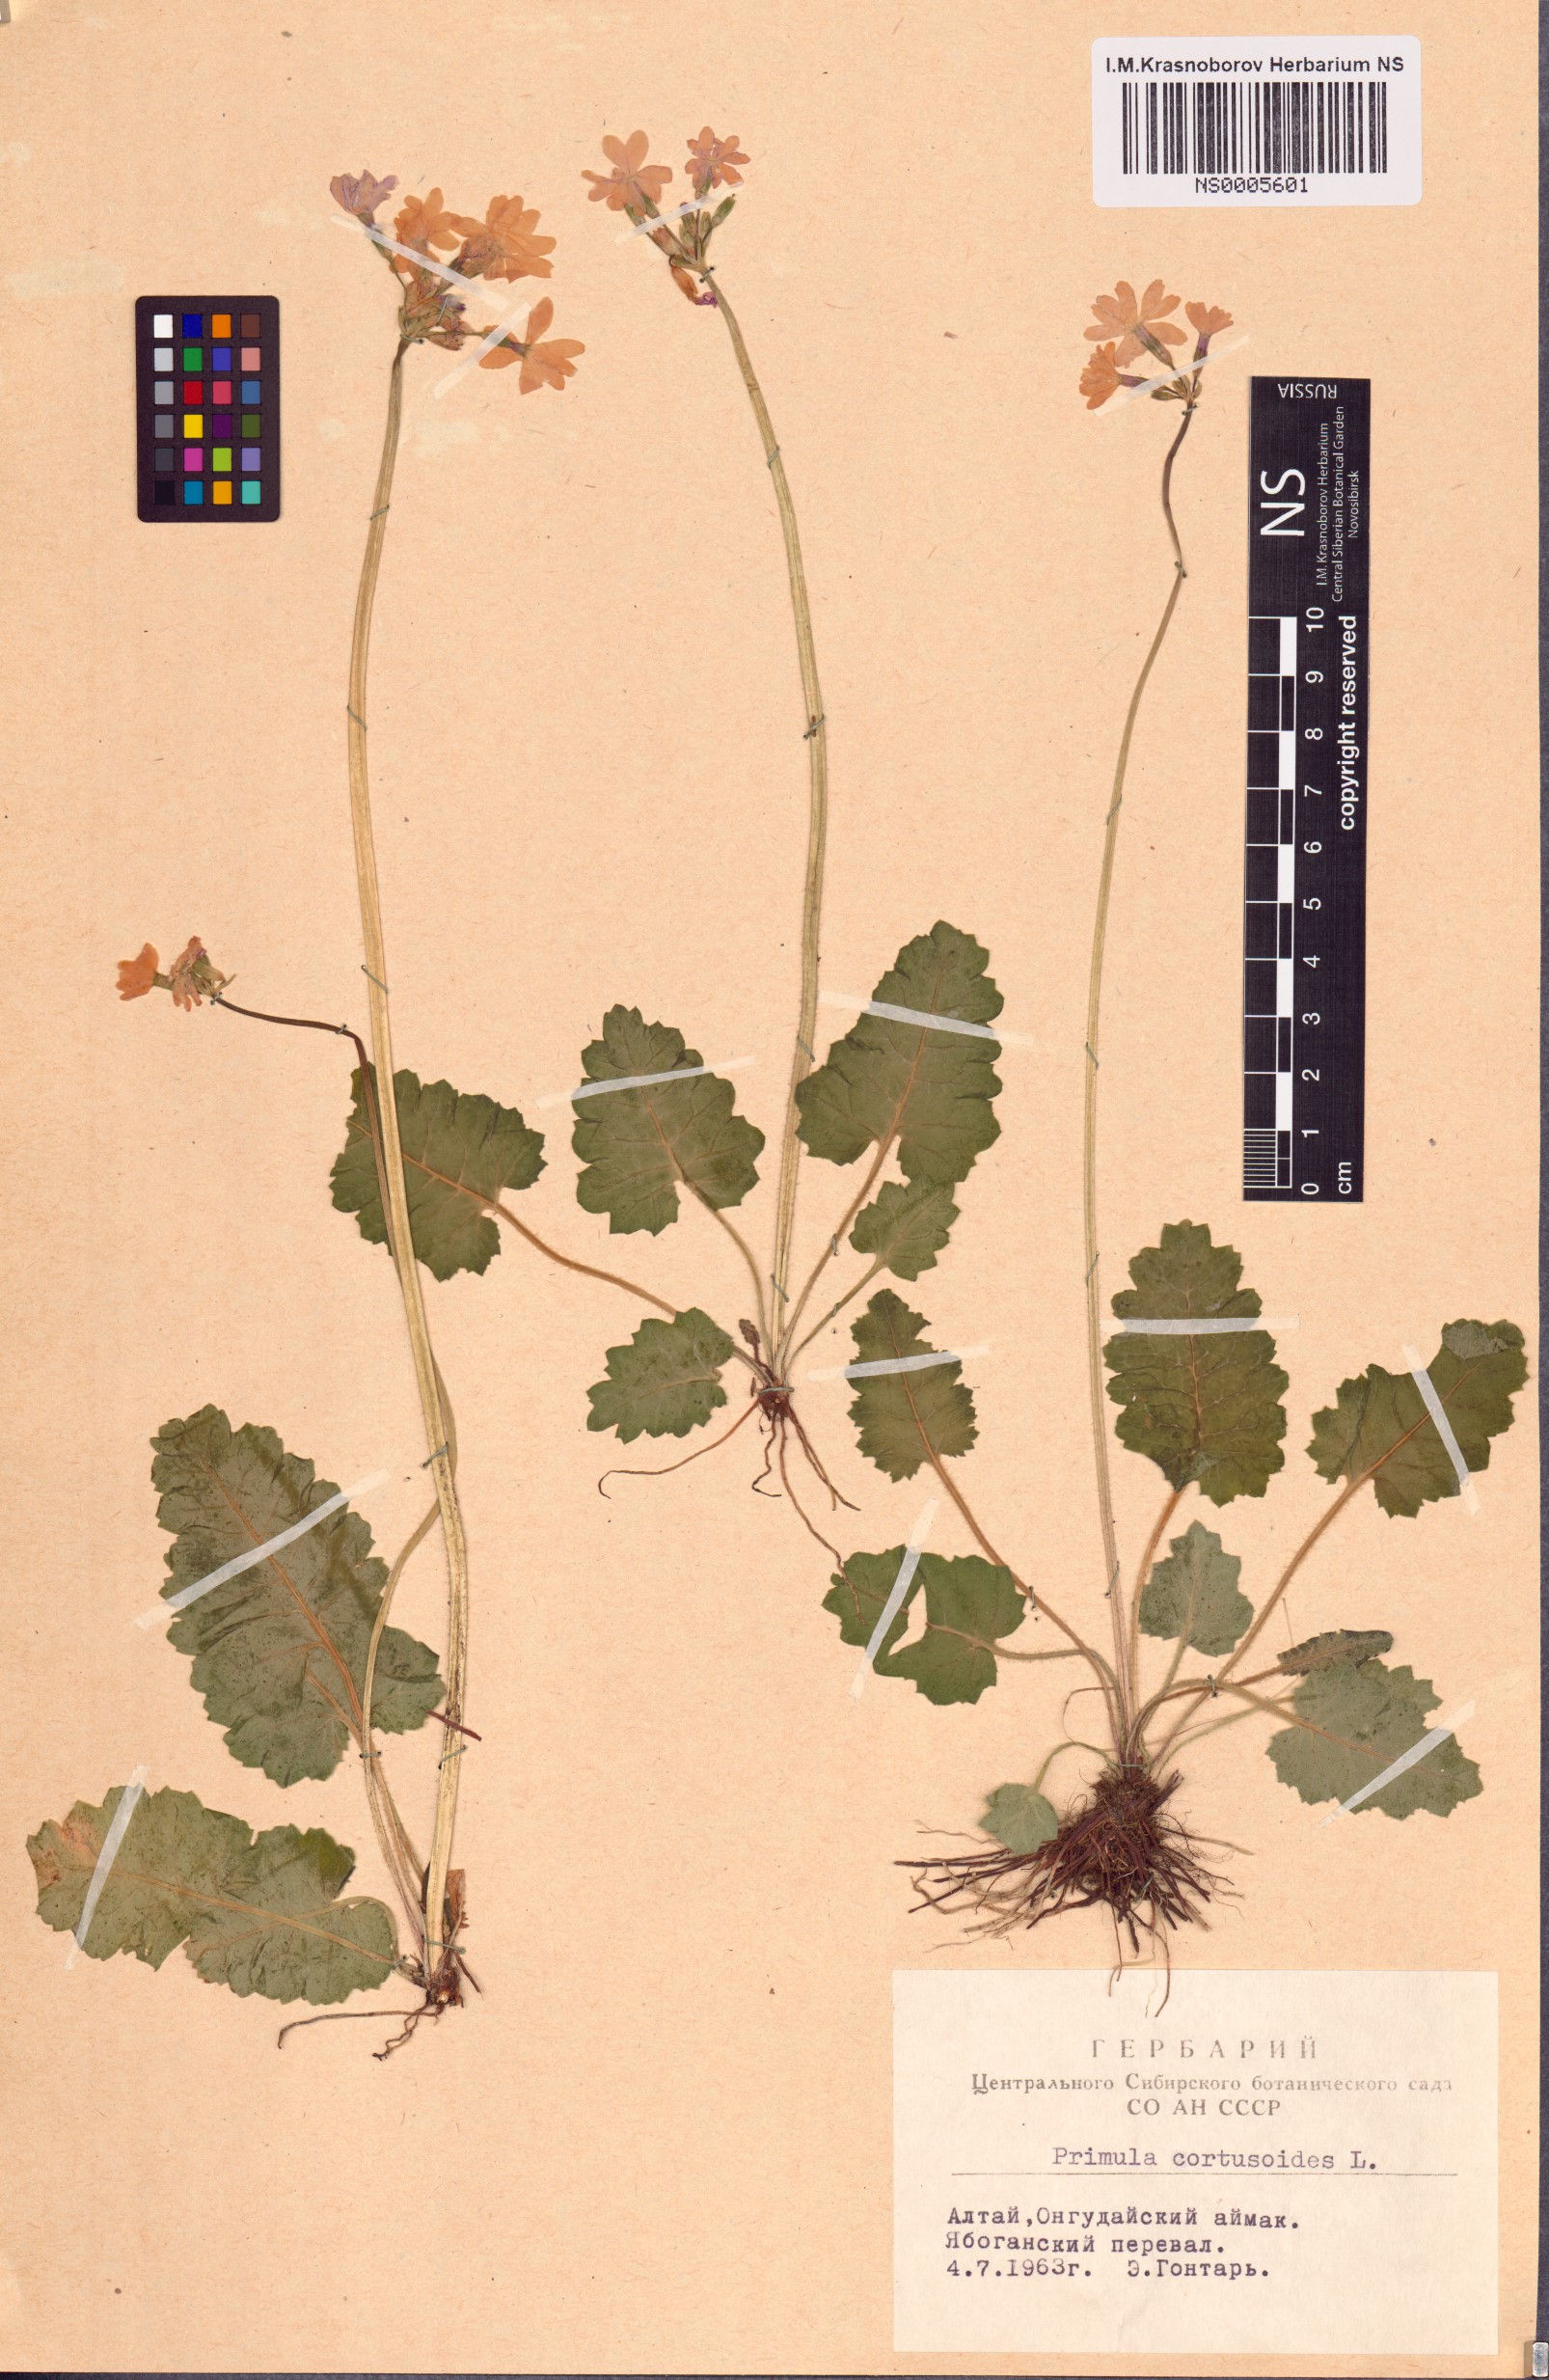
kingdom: Plantae
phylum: Tracheophyta
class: Magnoliopsida
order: Ericales
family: Primulaceae
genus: Primula
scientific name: Primula cortusoides
